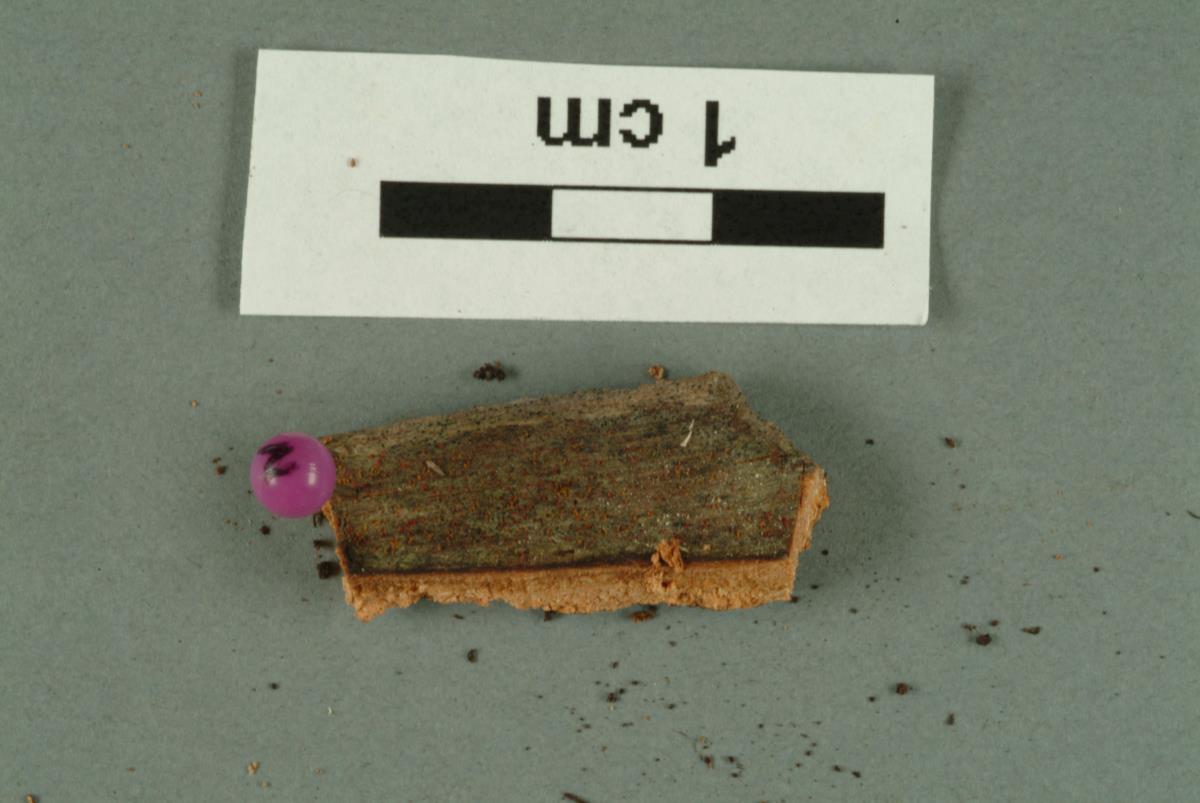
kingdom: Fungi
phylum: Ascomycota
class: Sordariomycetes
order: Chaetosphaeriales
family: Chaetosphaeriaceae
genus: Dictyochaeta
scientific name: Dictyochaeta
